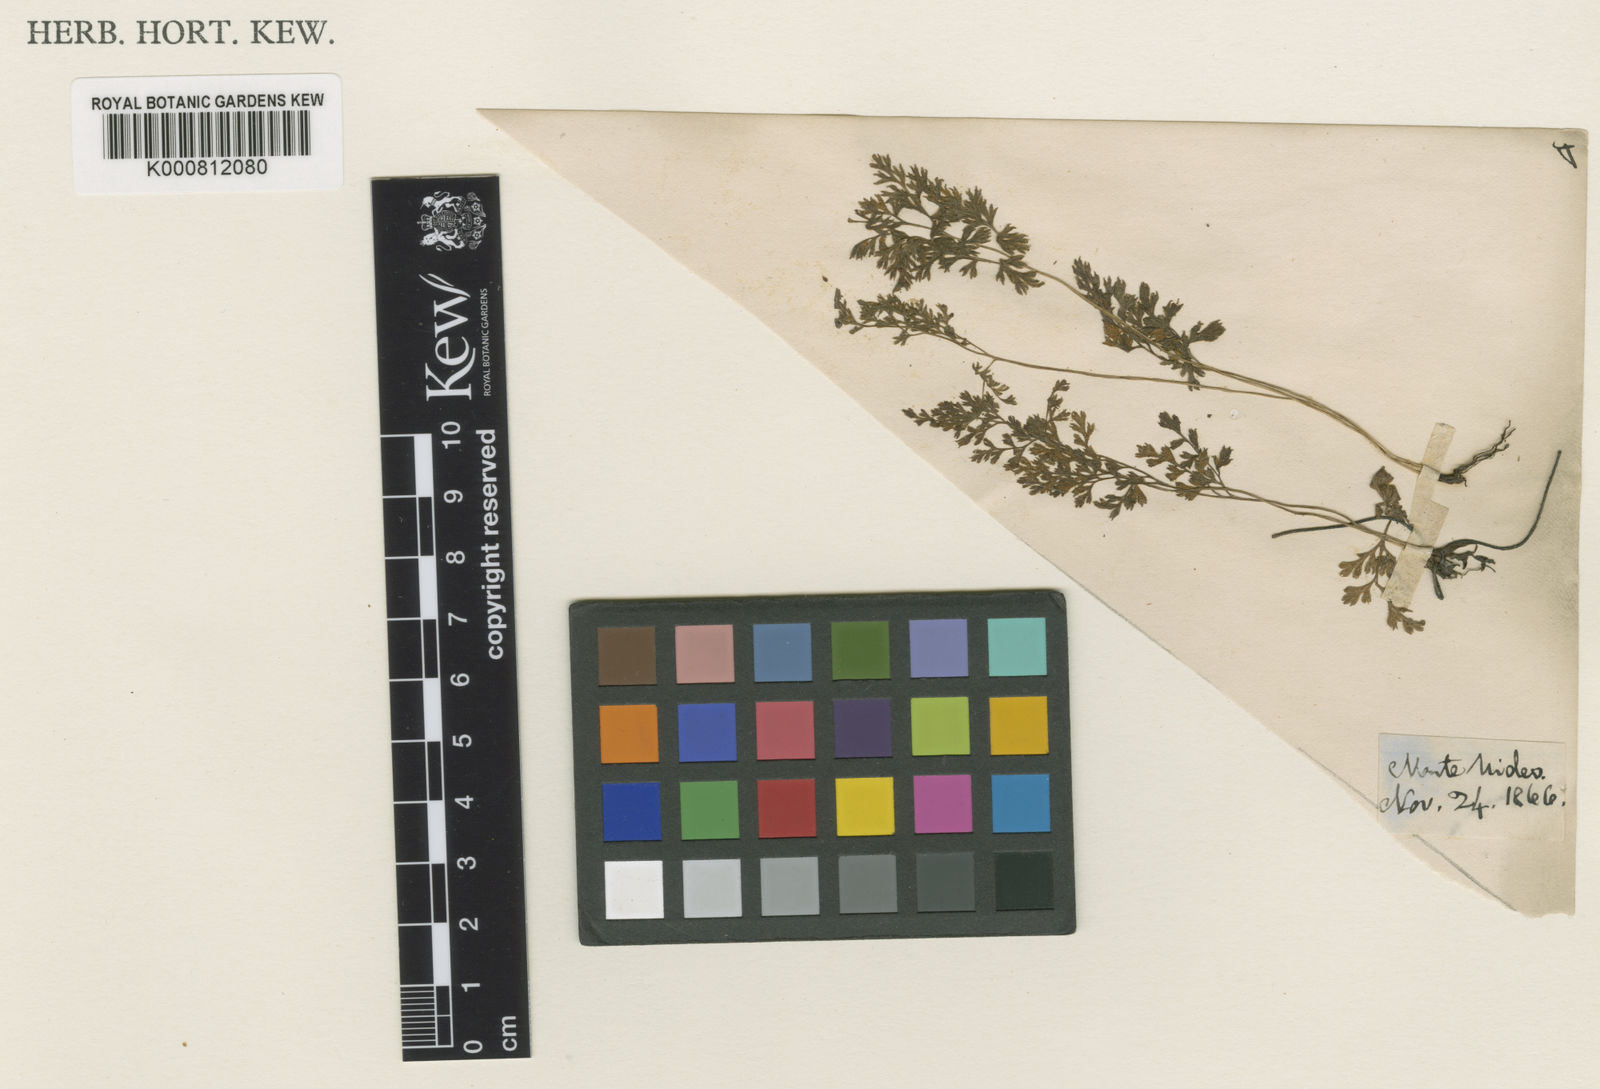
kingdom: Plantae
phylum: Tracheophyta
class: Polypodiopsida
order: Polypodiales
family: Pteridaceae
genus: Gastoniella
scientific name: Gastoniella chaerophylla
